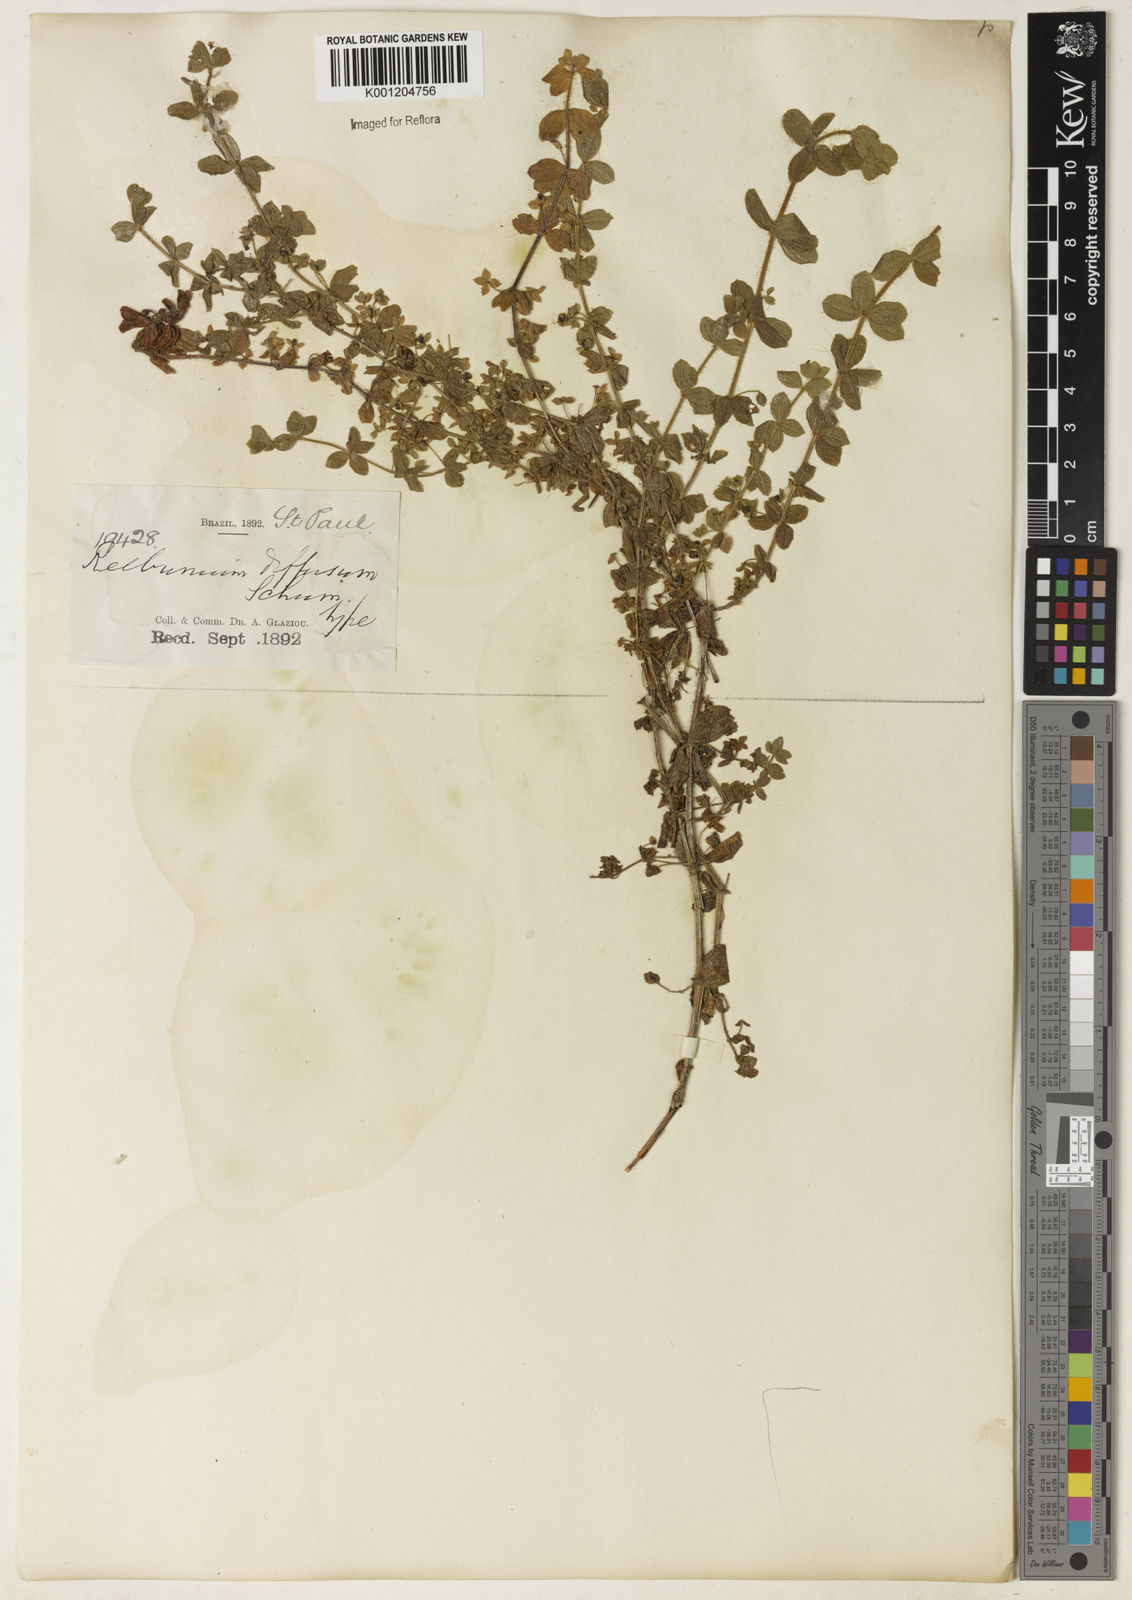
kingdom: Plantae
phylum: Tracheophyta
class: Magnoliopsida
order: Gentianales
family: Rubiaceae
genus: Galium
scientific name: Galium noxium
